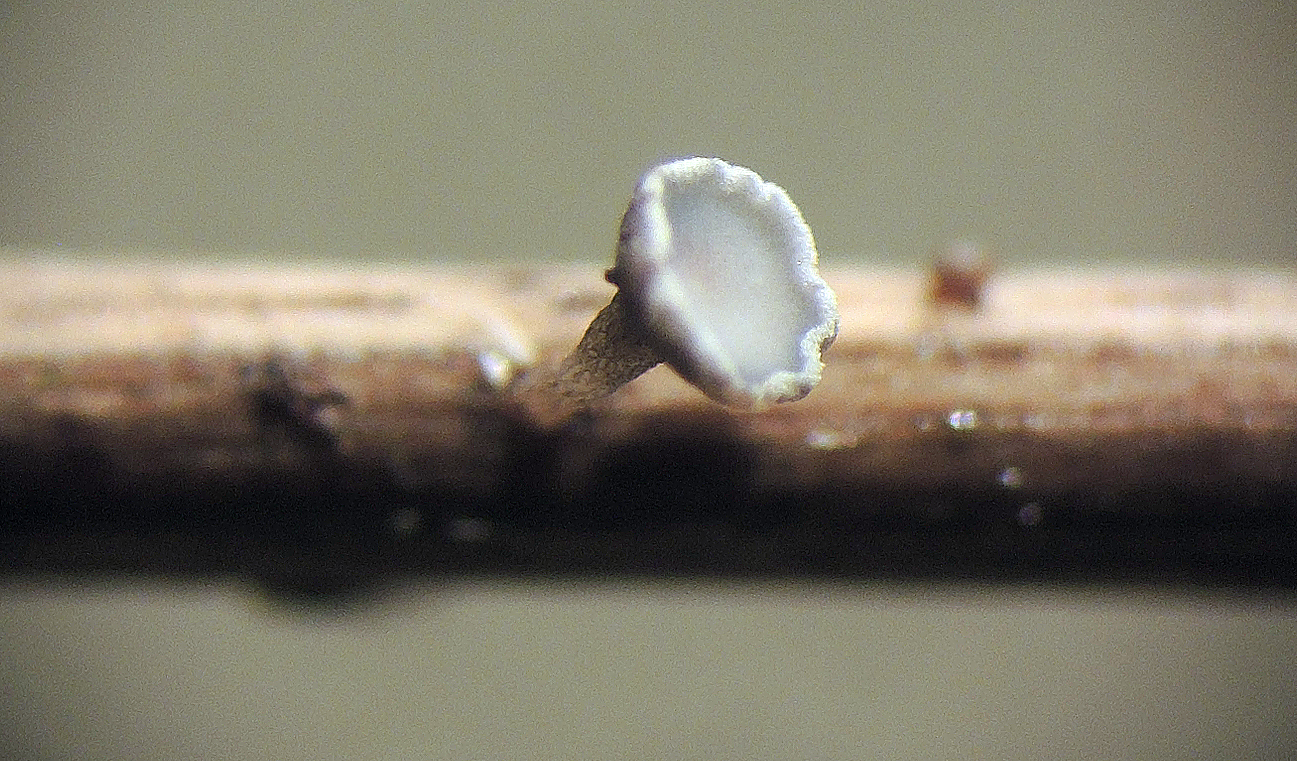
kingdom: Fungi
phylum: Ascomycota
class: Leotiomycetes
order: Helotiales
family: Helotiaceae
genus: Crocicreas
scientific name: Crocicreas furvum
